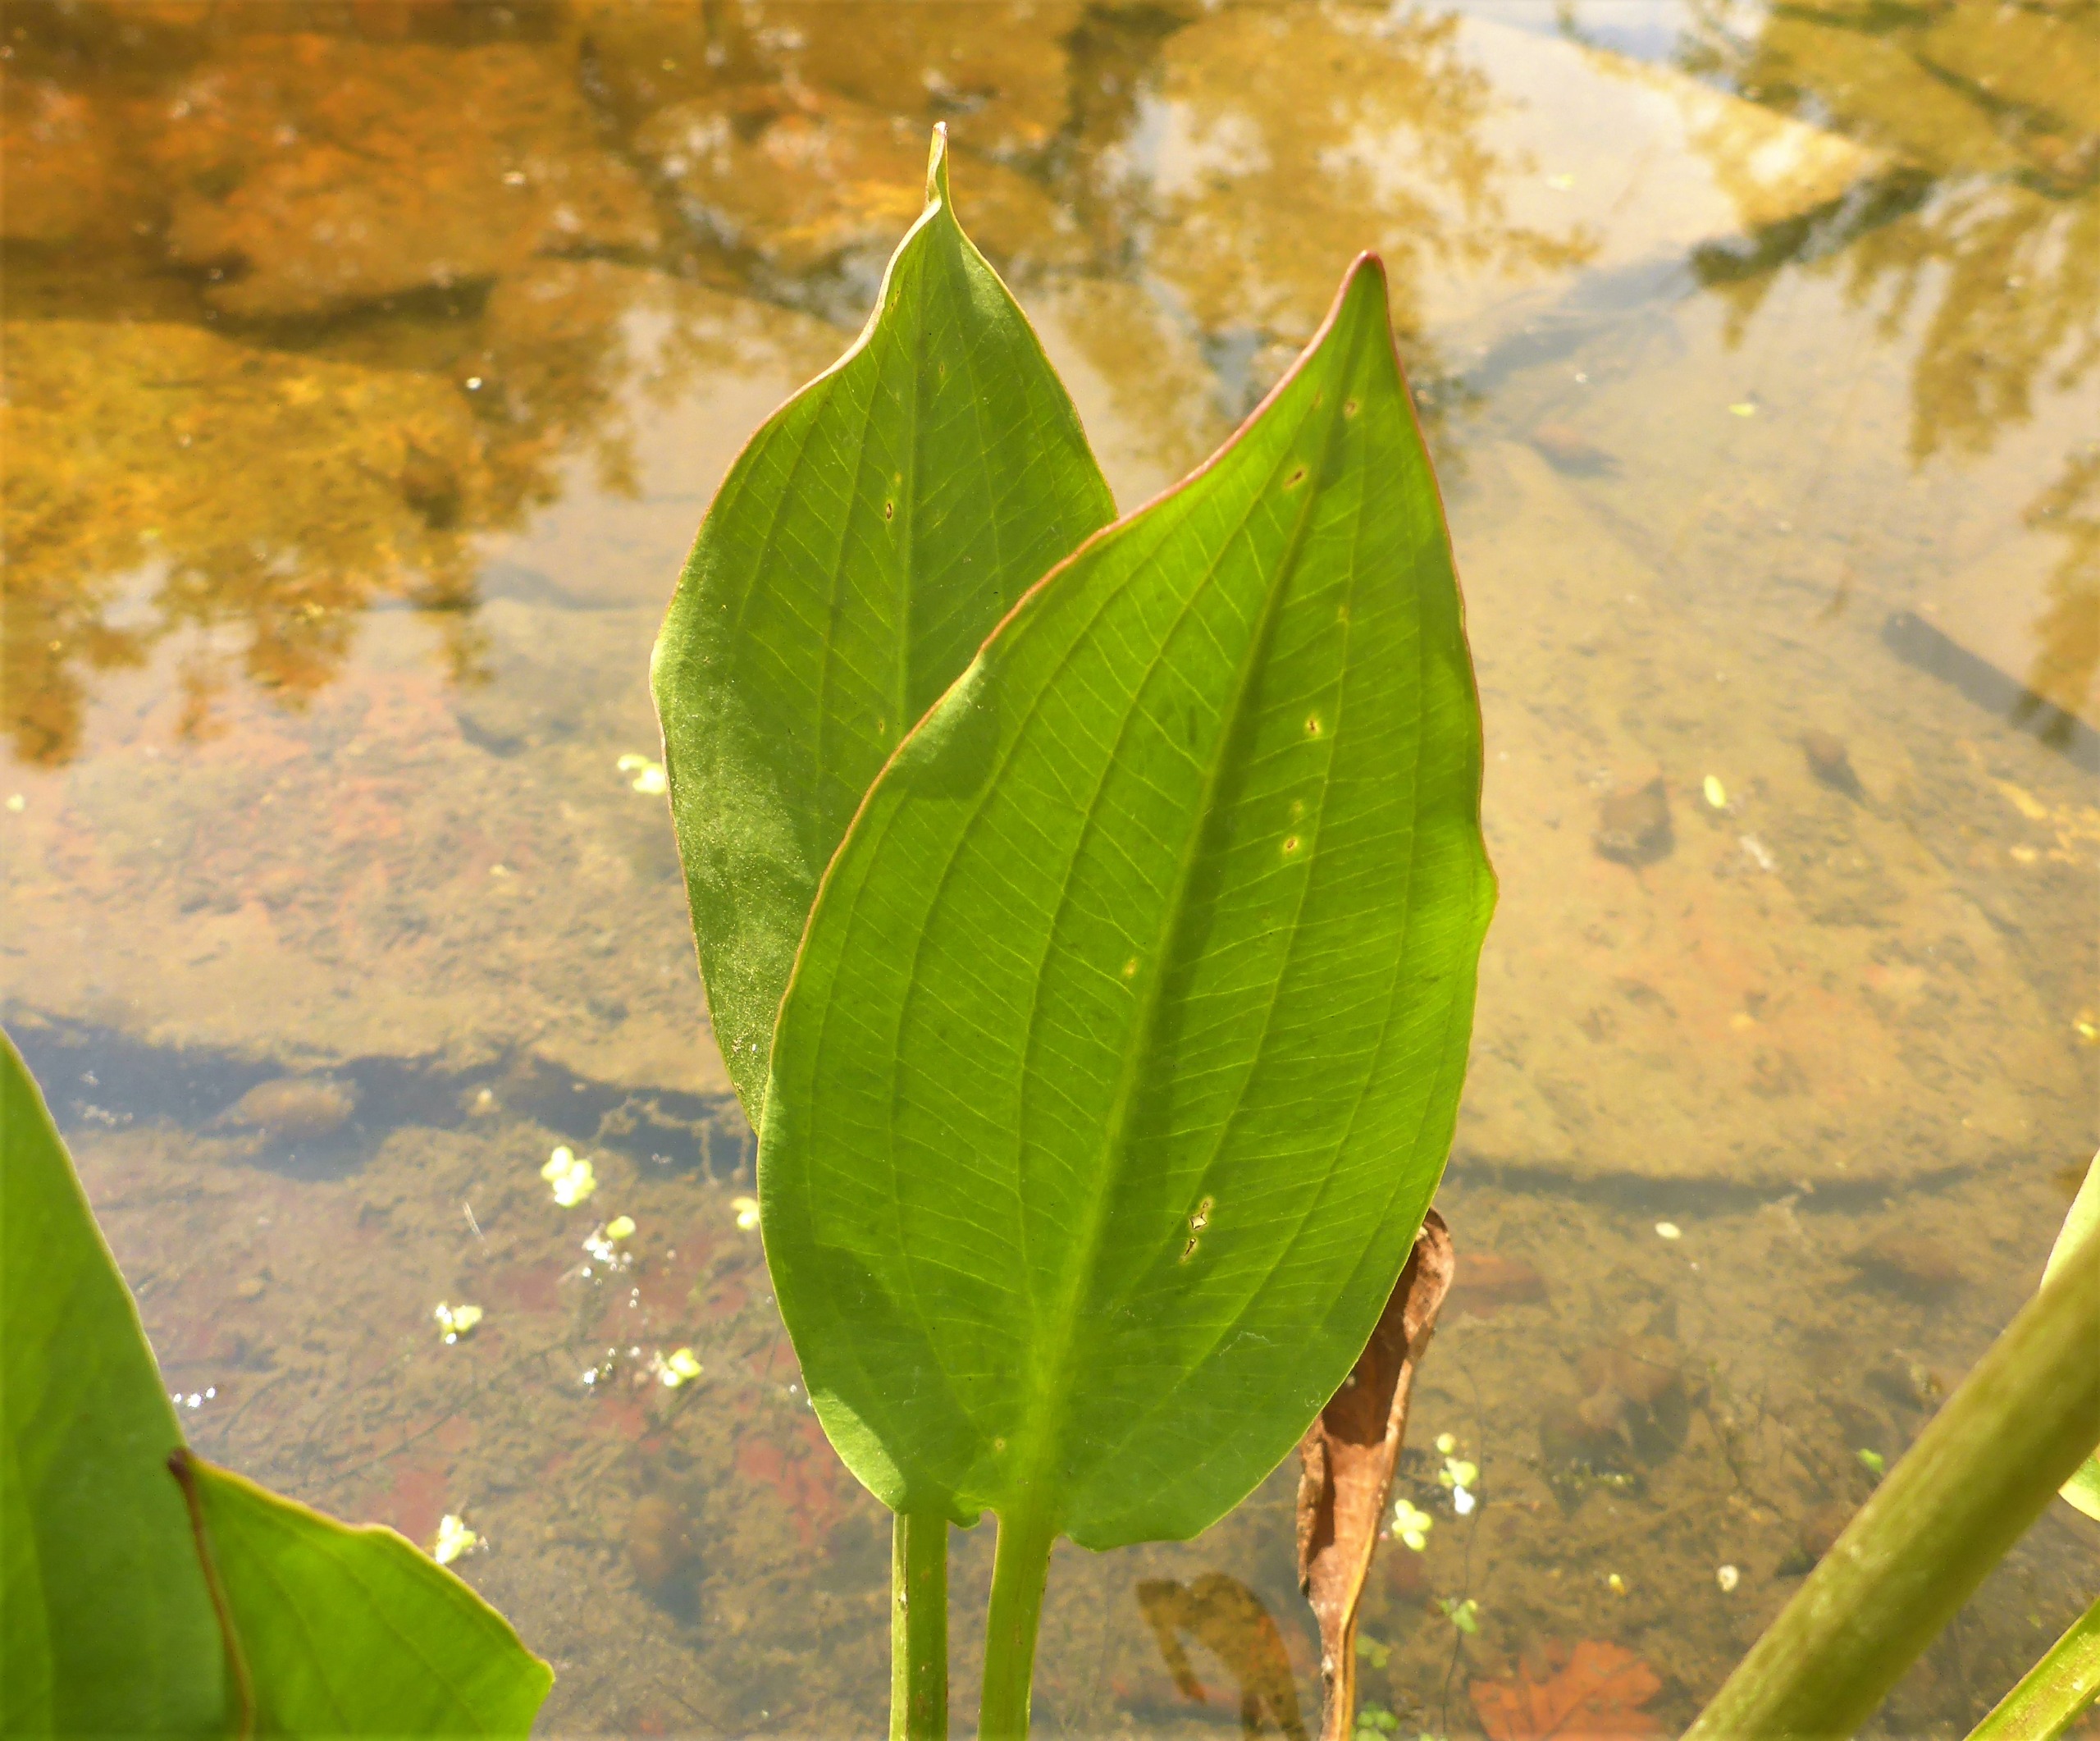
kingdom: Plantae
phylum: Tracheophyta
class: Liliopsida
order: Alismatales
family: Alismataceae
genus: Alisma
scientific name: Alisma plantago-aquatica
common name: Vejbred-skeblad
